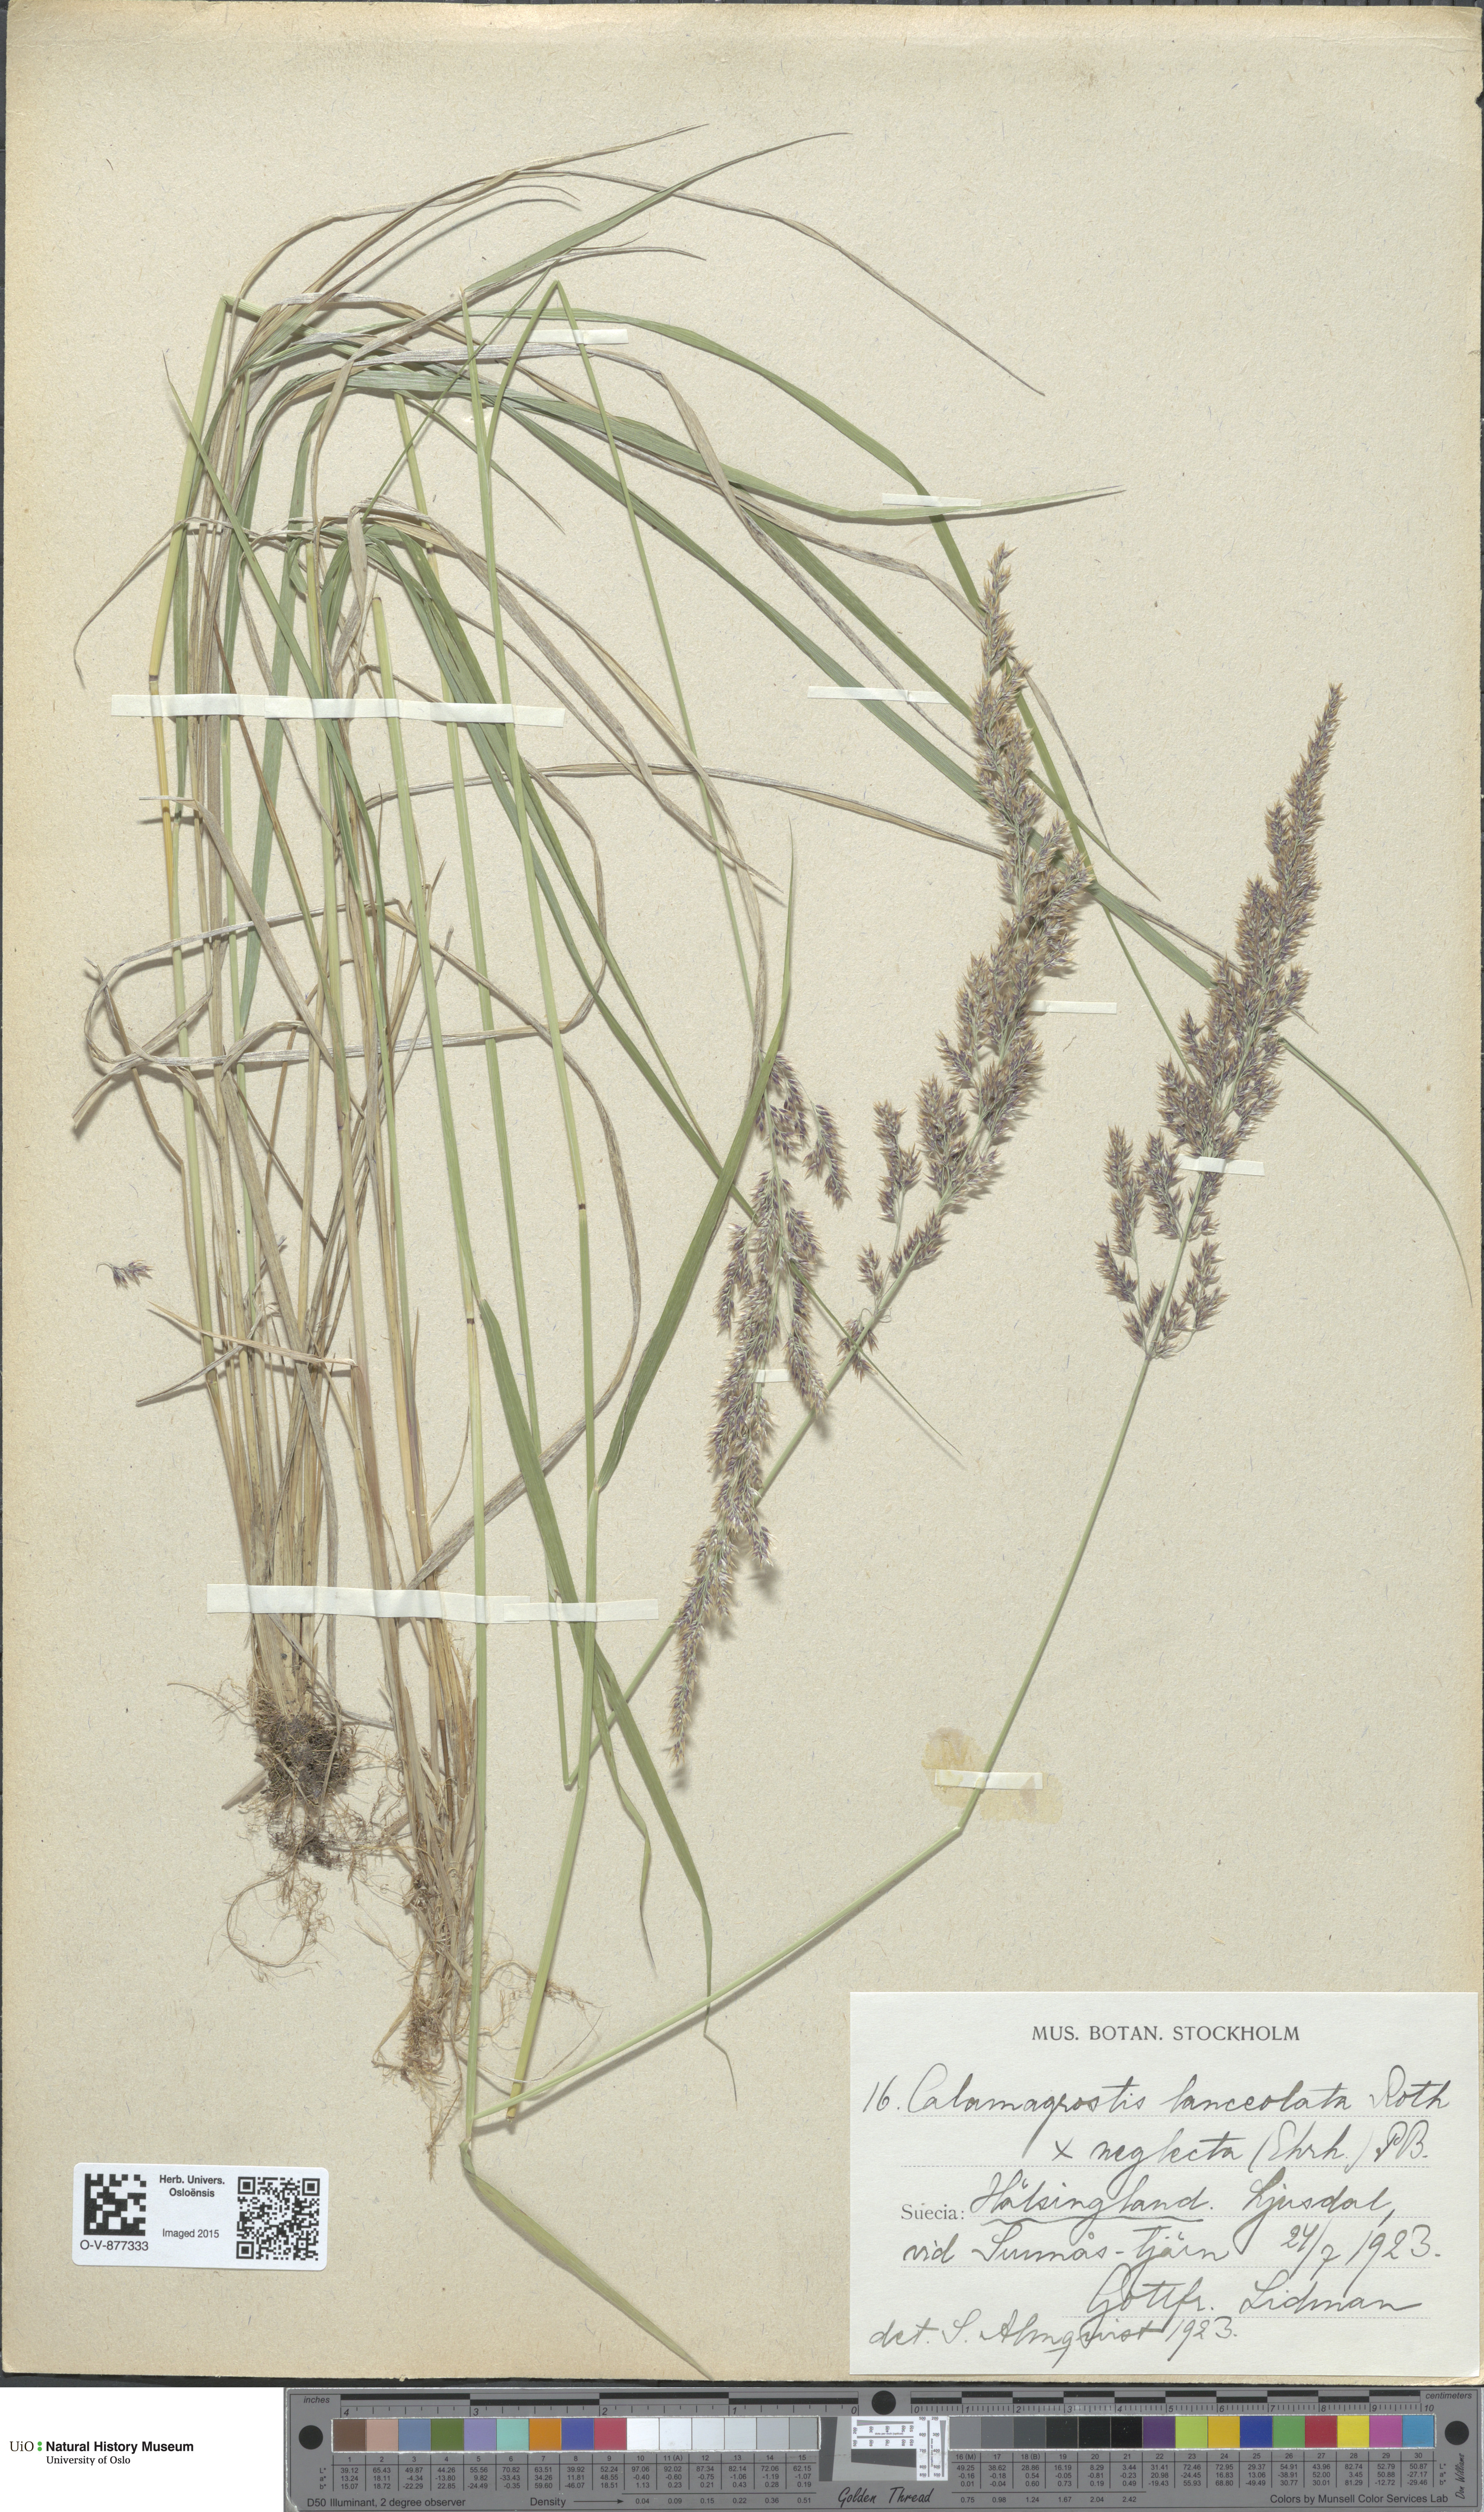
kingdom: Plantae
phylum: Tracheophyta
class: Liliopsida
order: Poales
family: Poaceae
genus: Calamagrostis
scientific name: Calamagrostis
